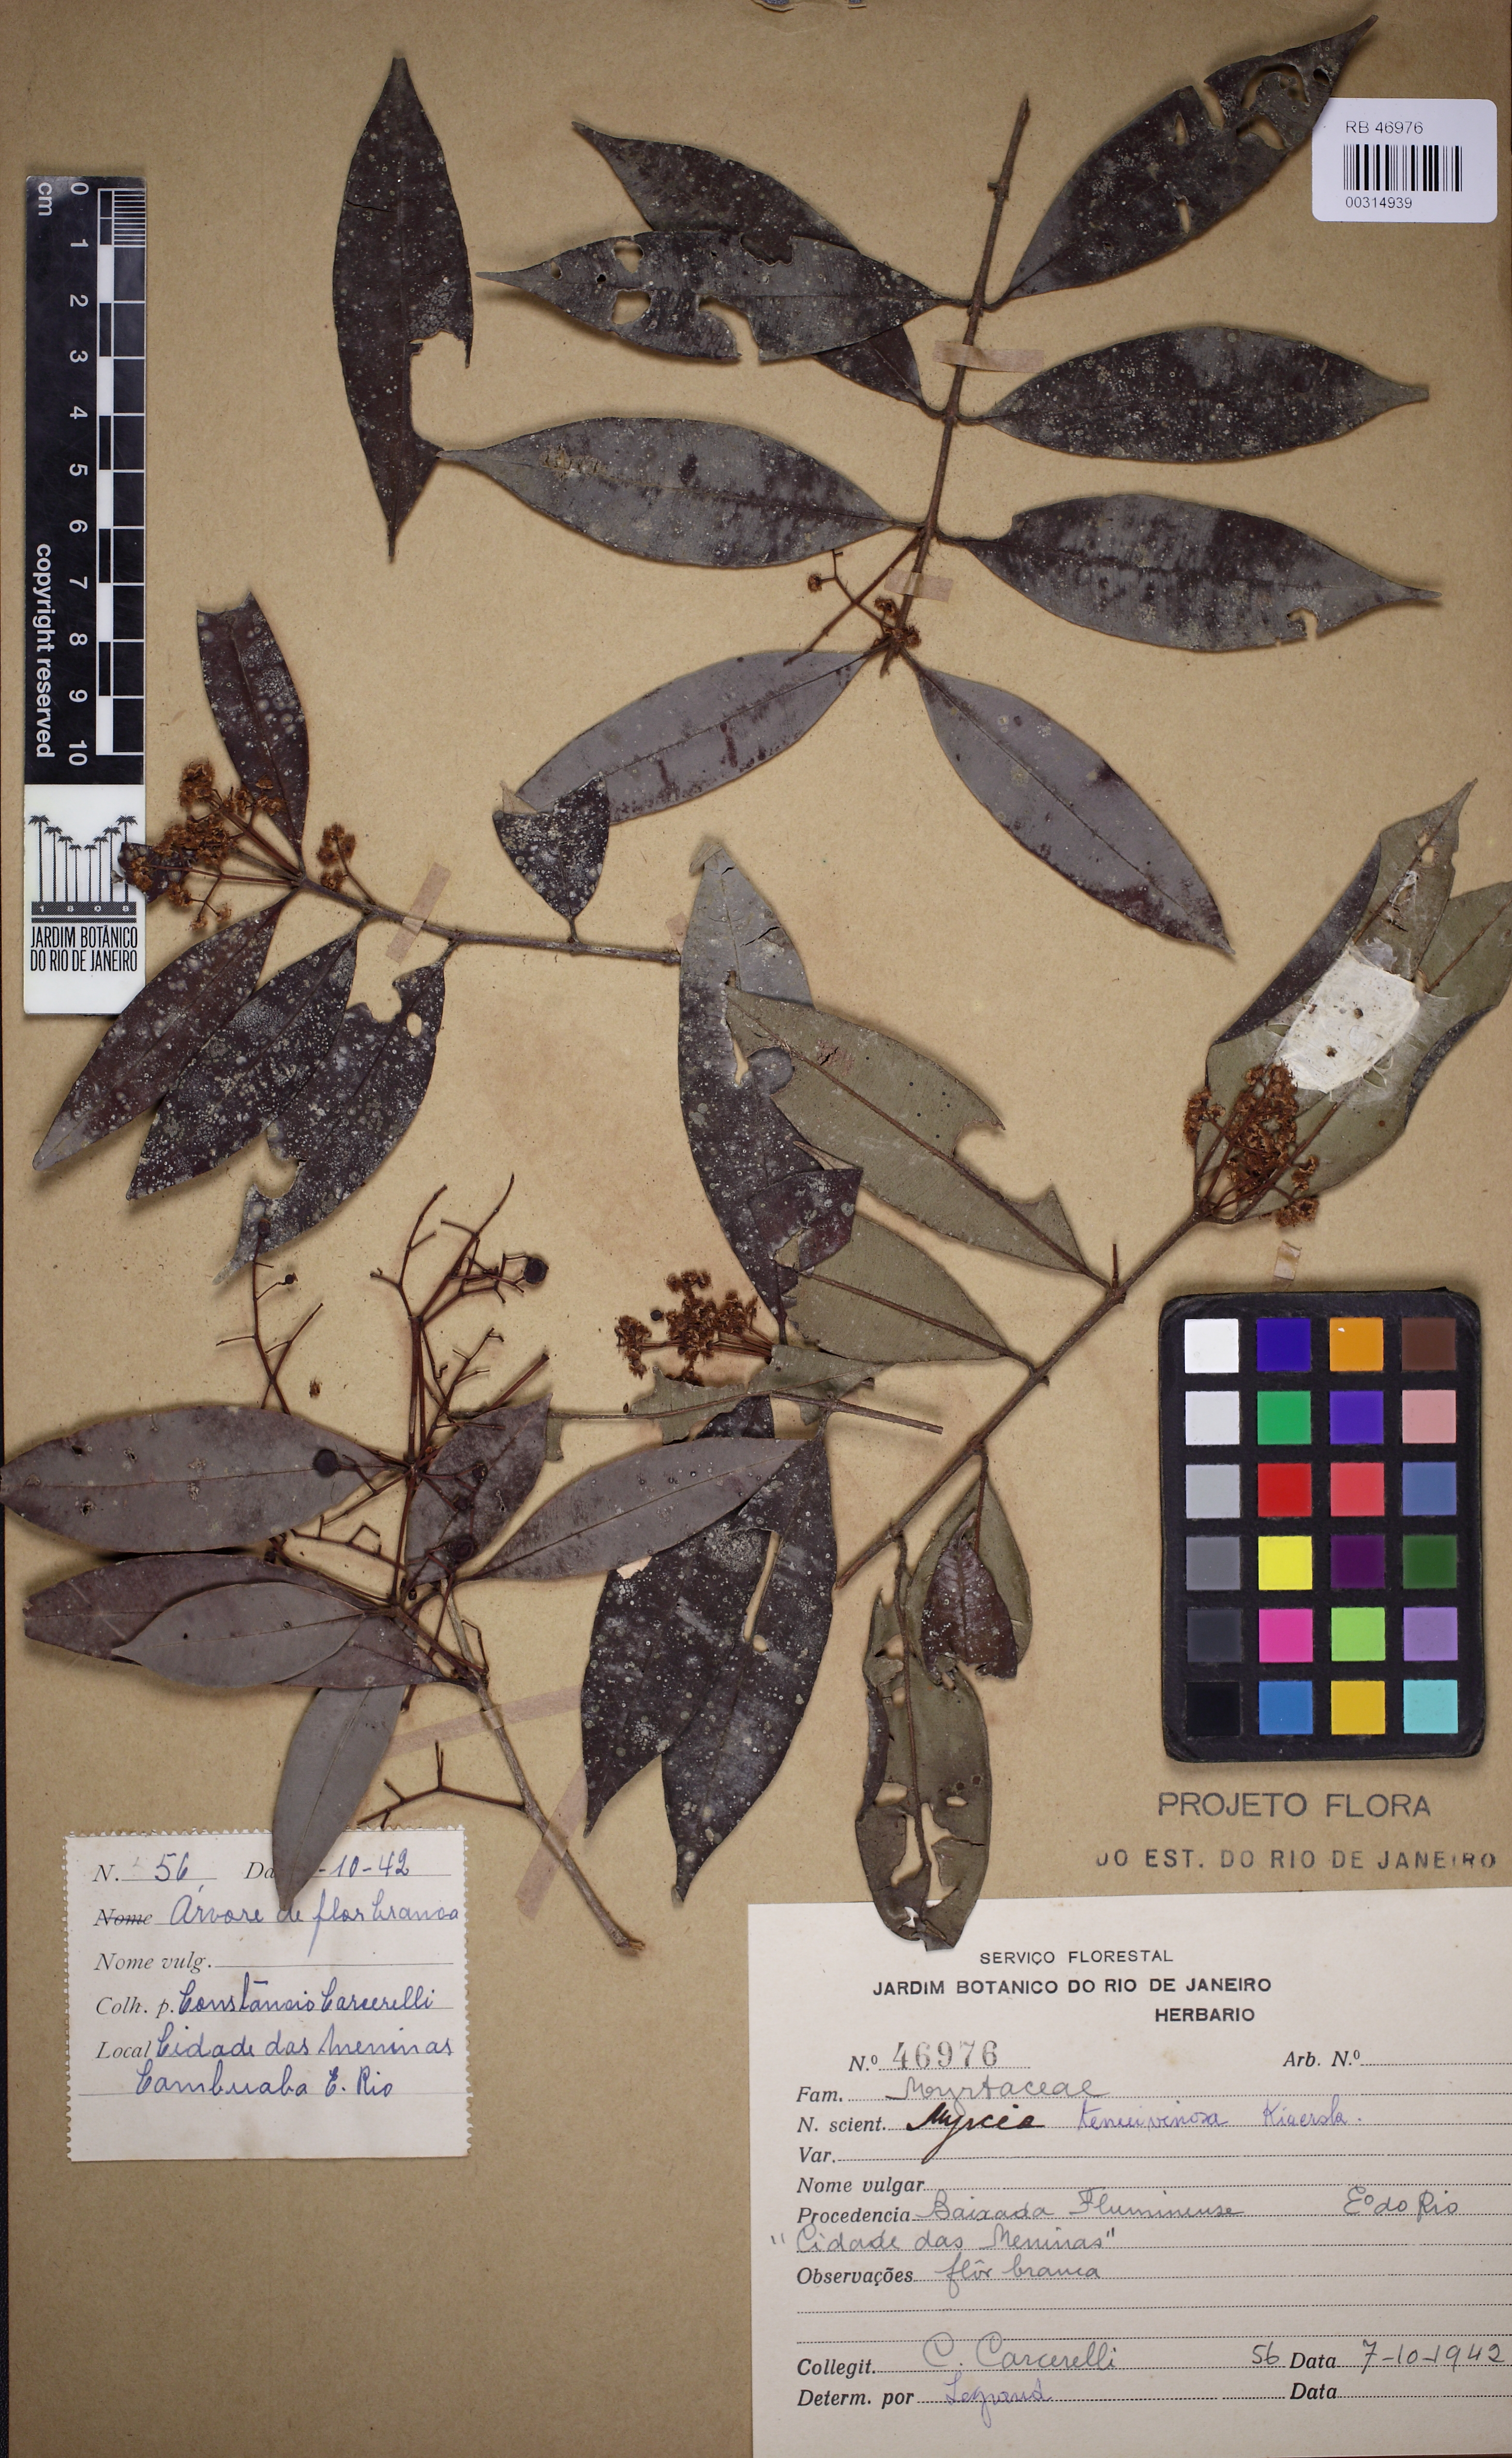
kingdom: Plantae
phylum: Tracheophyta
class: Magnoliopsida
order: Myrtales
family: Myrtaceae
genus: Myrcia
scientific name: Myrcia tenuivenosa
